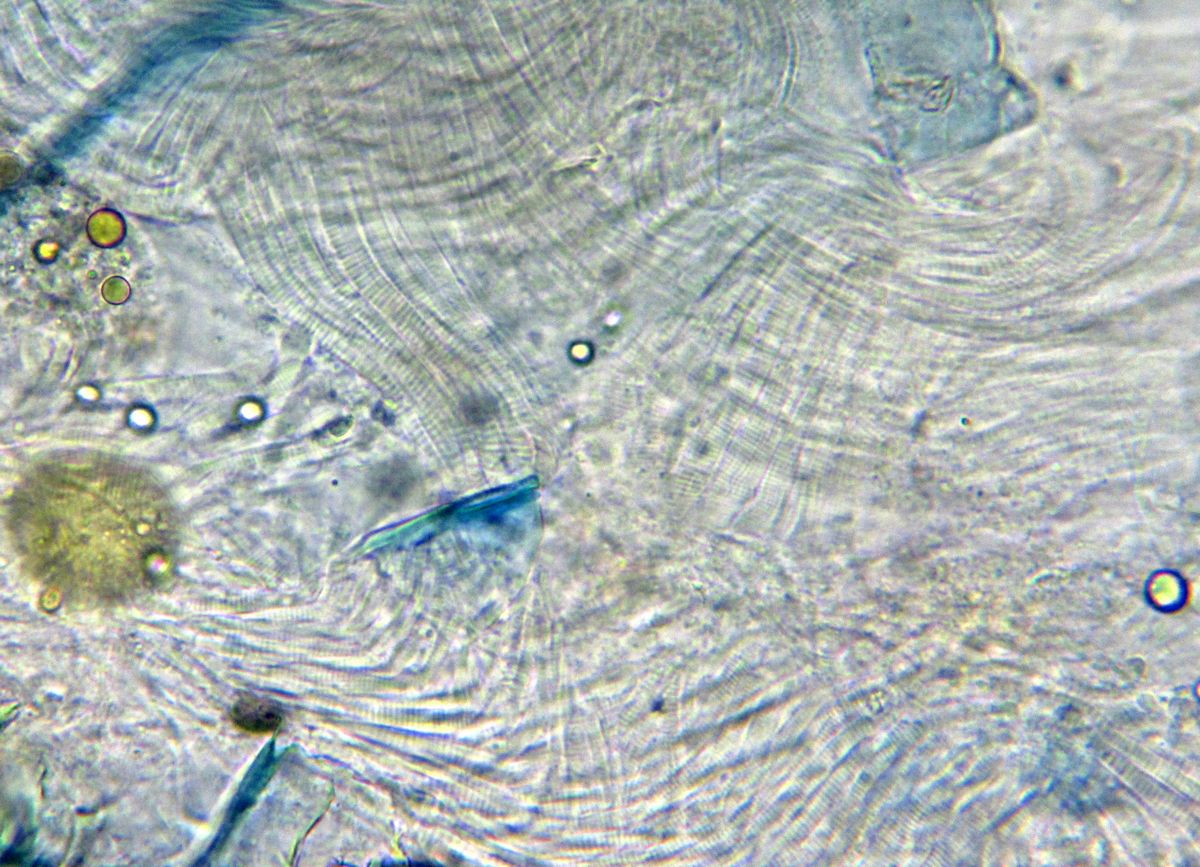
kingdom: Animalia
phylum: Arthropoda
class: Copepoda
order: Calanoida
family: Diaptomidae
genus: Diaptomus
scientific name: Diaptomus zografi
